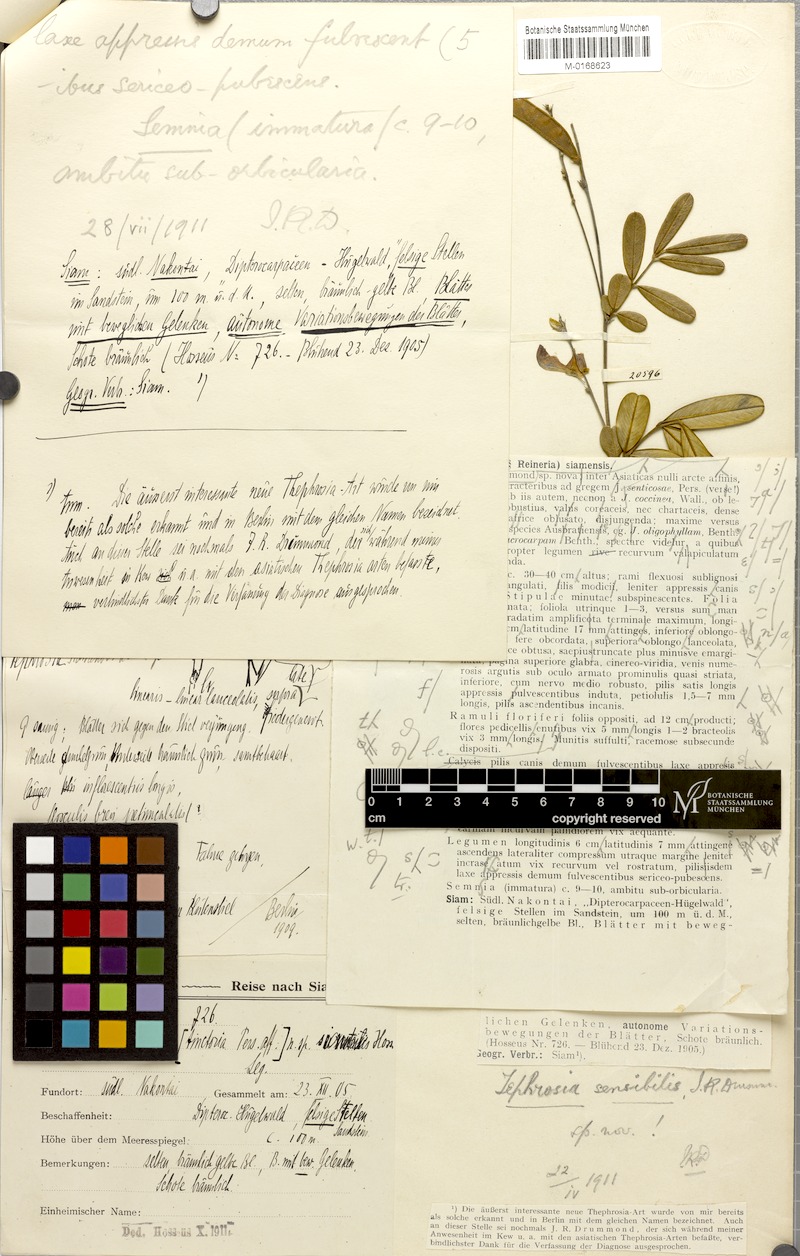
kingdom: Plantae
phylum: Tracheophyta
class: Magnoliopsida
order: Fabales
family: Fabaceae
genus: Tephrosia
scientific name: Tephrosia coccinea
